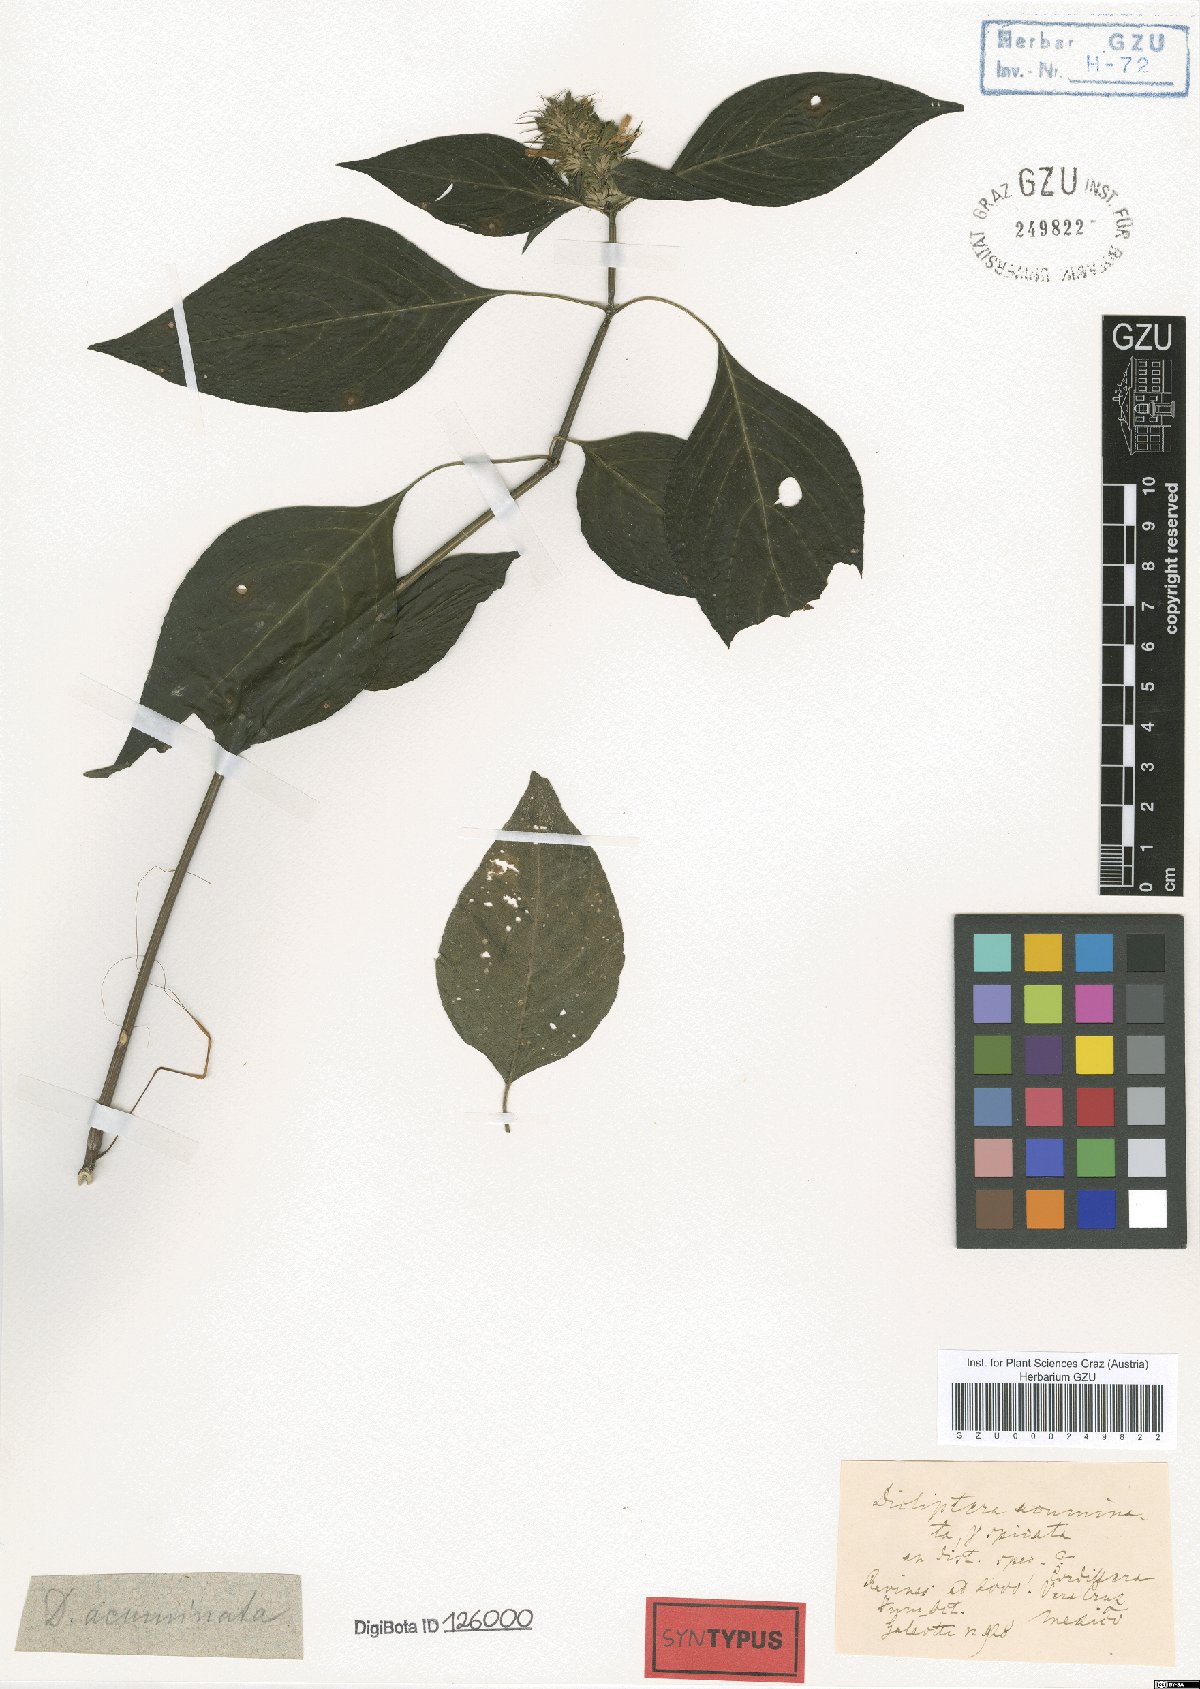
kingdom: Plantae
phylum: Tracheophyta
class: Magnoliopsida
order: Lamiales
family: Acanthaceae
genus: Dicliptera
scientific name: Dicliptera acuminata
